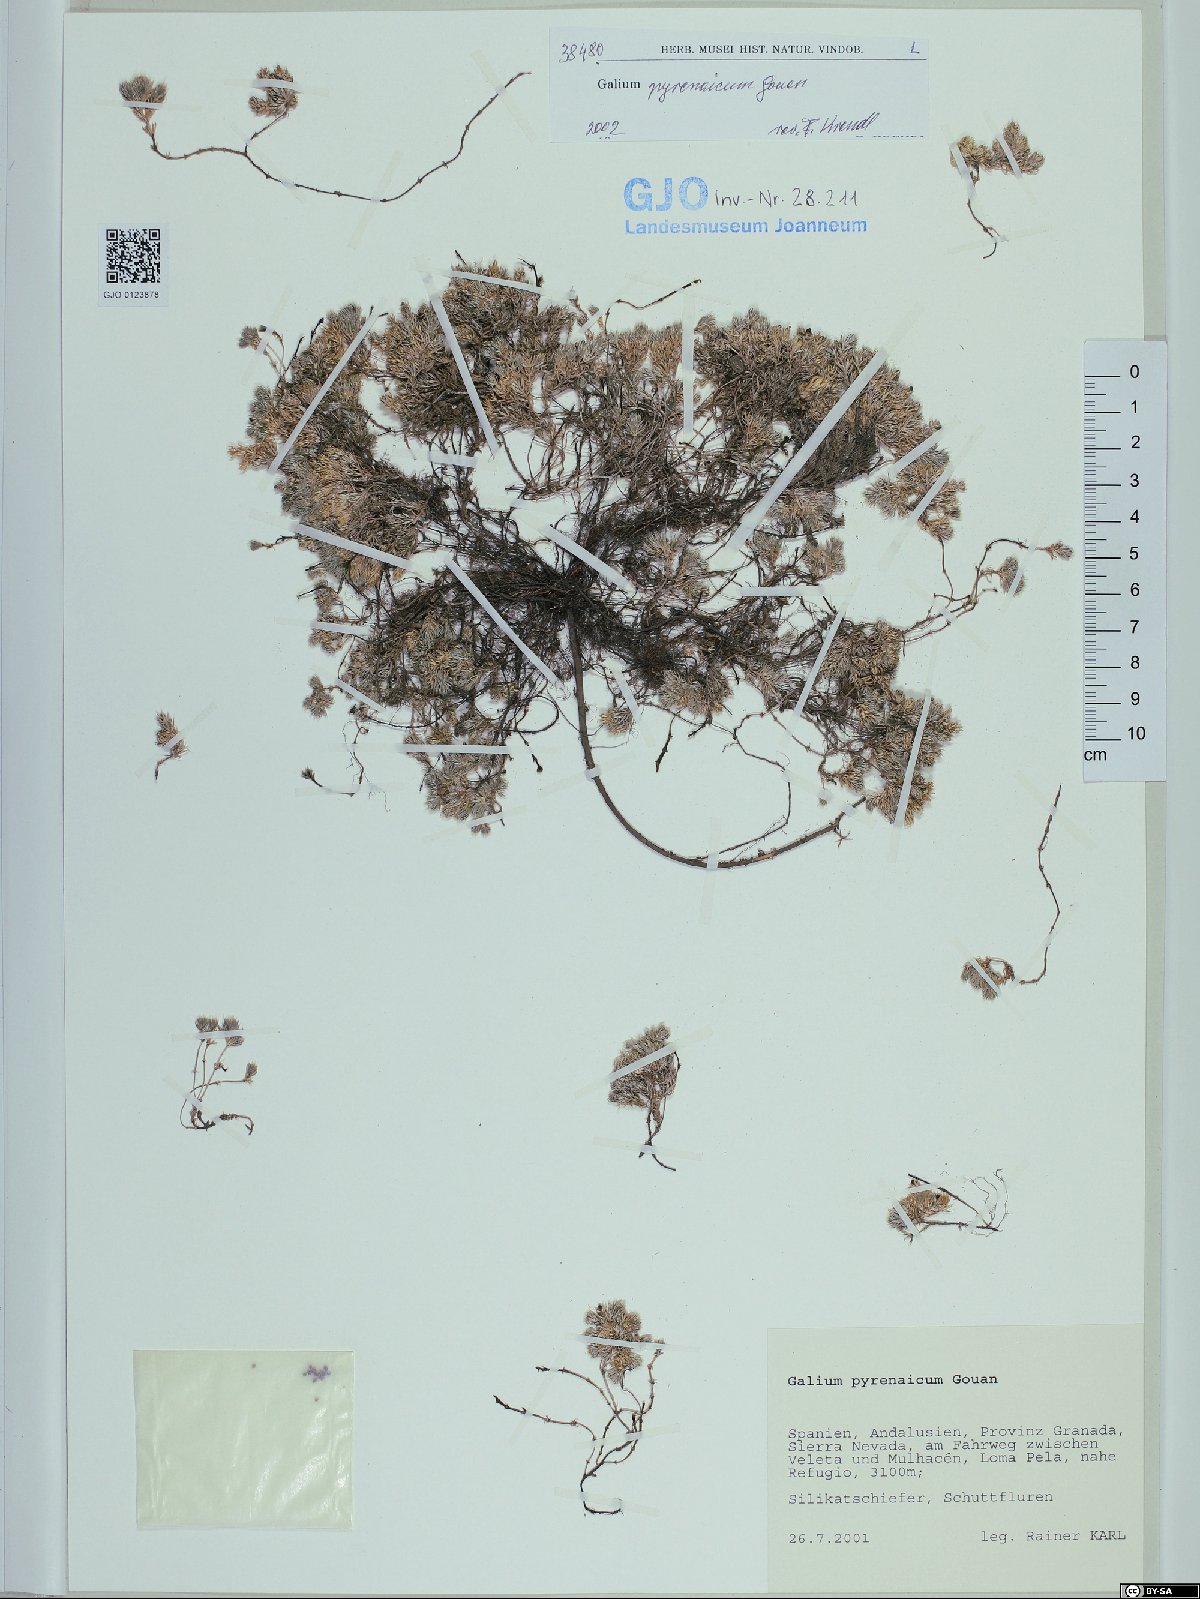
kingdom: Plantae
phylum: Tracheophyta
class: Magnoliopsida
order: Gentianales
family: Rubiaceae
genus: Galium
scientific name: Galium pyrenaicum
